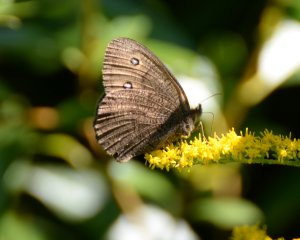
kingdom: Animalia
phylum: Arthropoda
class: Insecta
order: Lepidoptera
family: Nymphalidae
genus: Cercyonis
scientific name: Cercyonis pegala
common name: Common Wood-Nymph
